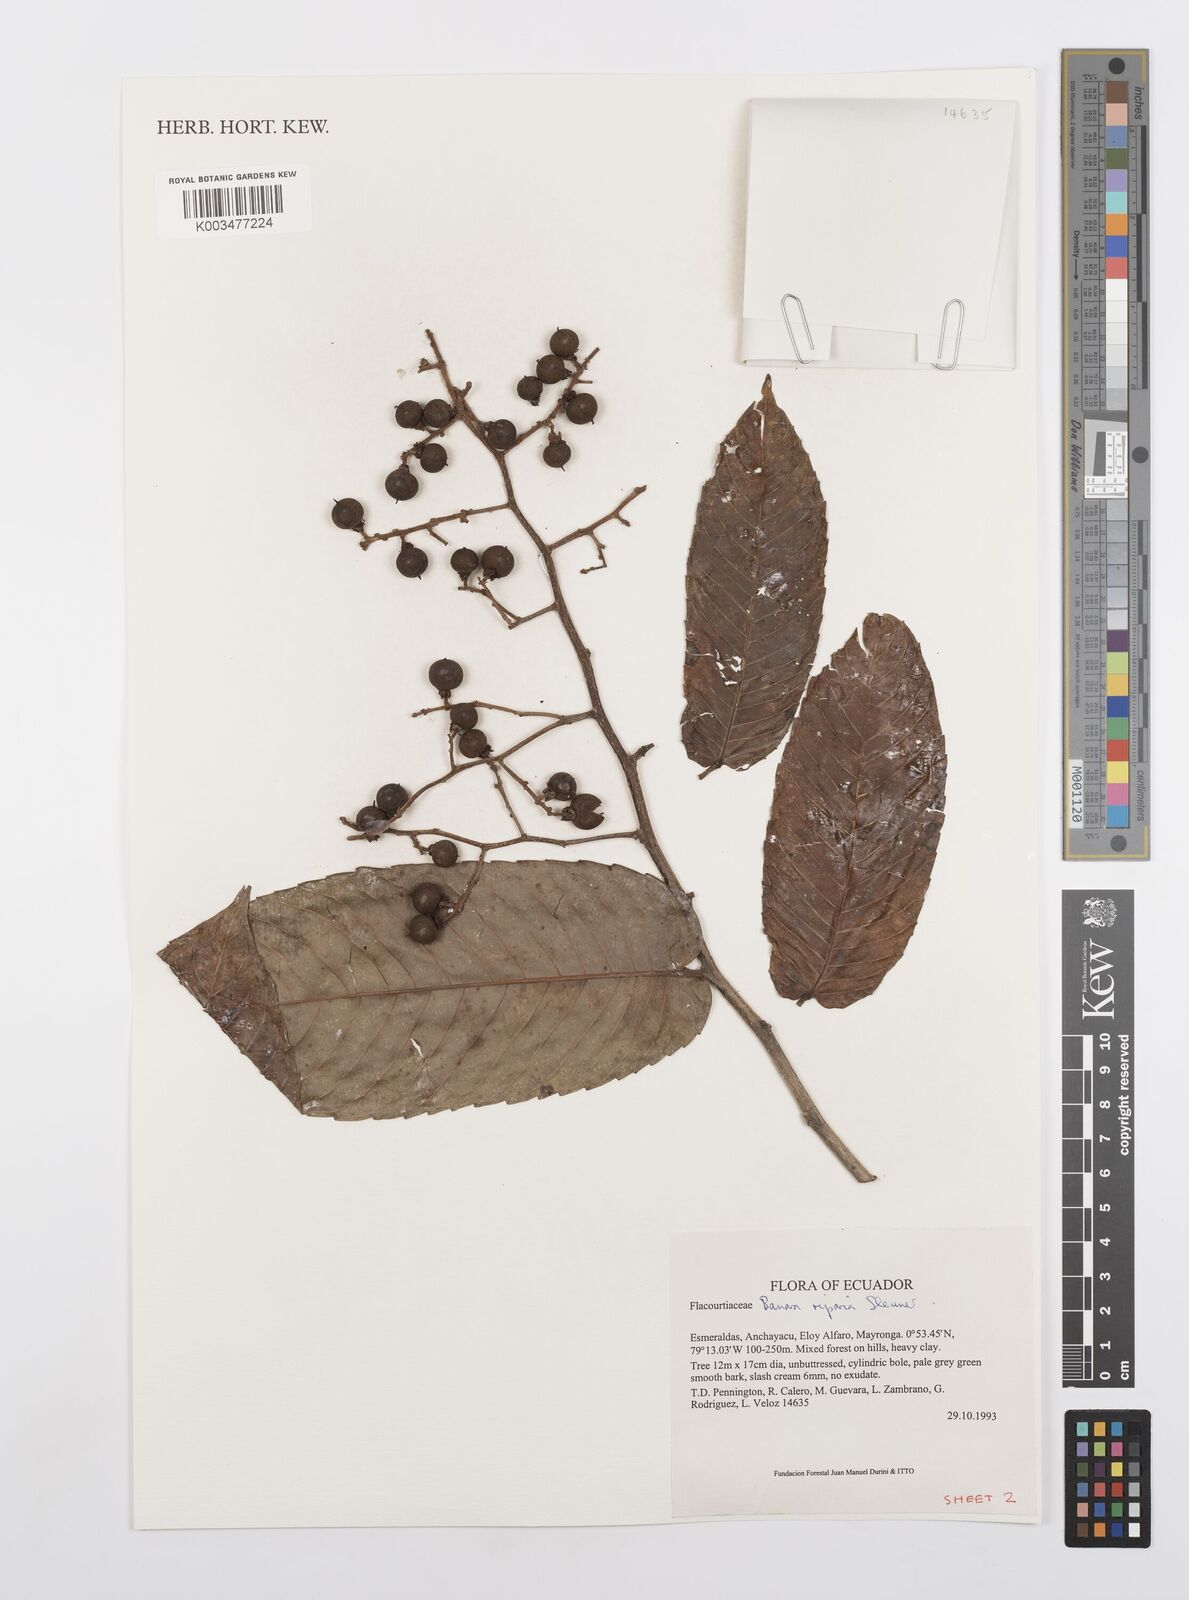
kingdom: Plantae
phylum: Tracheophyta
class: Magnoliopsida
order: Malpighiales
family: Salicaceae
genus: Banara
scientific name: Banara riparia
